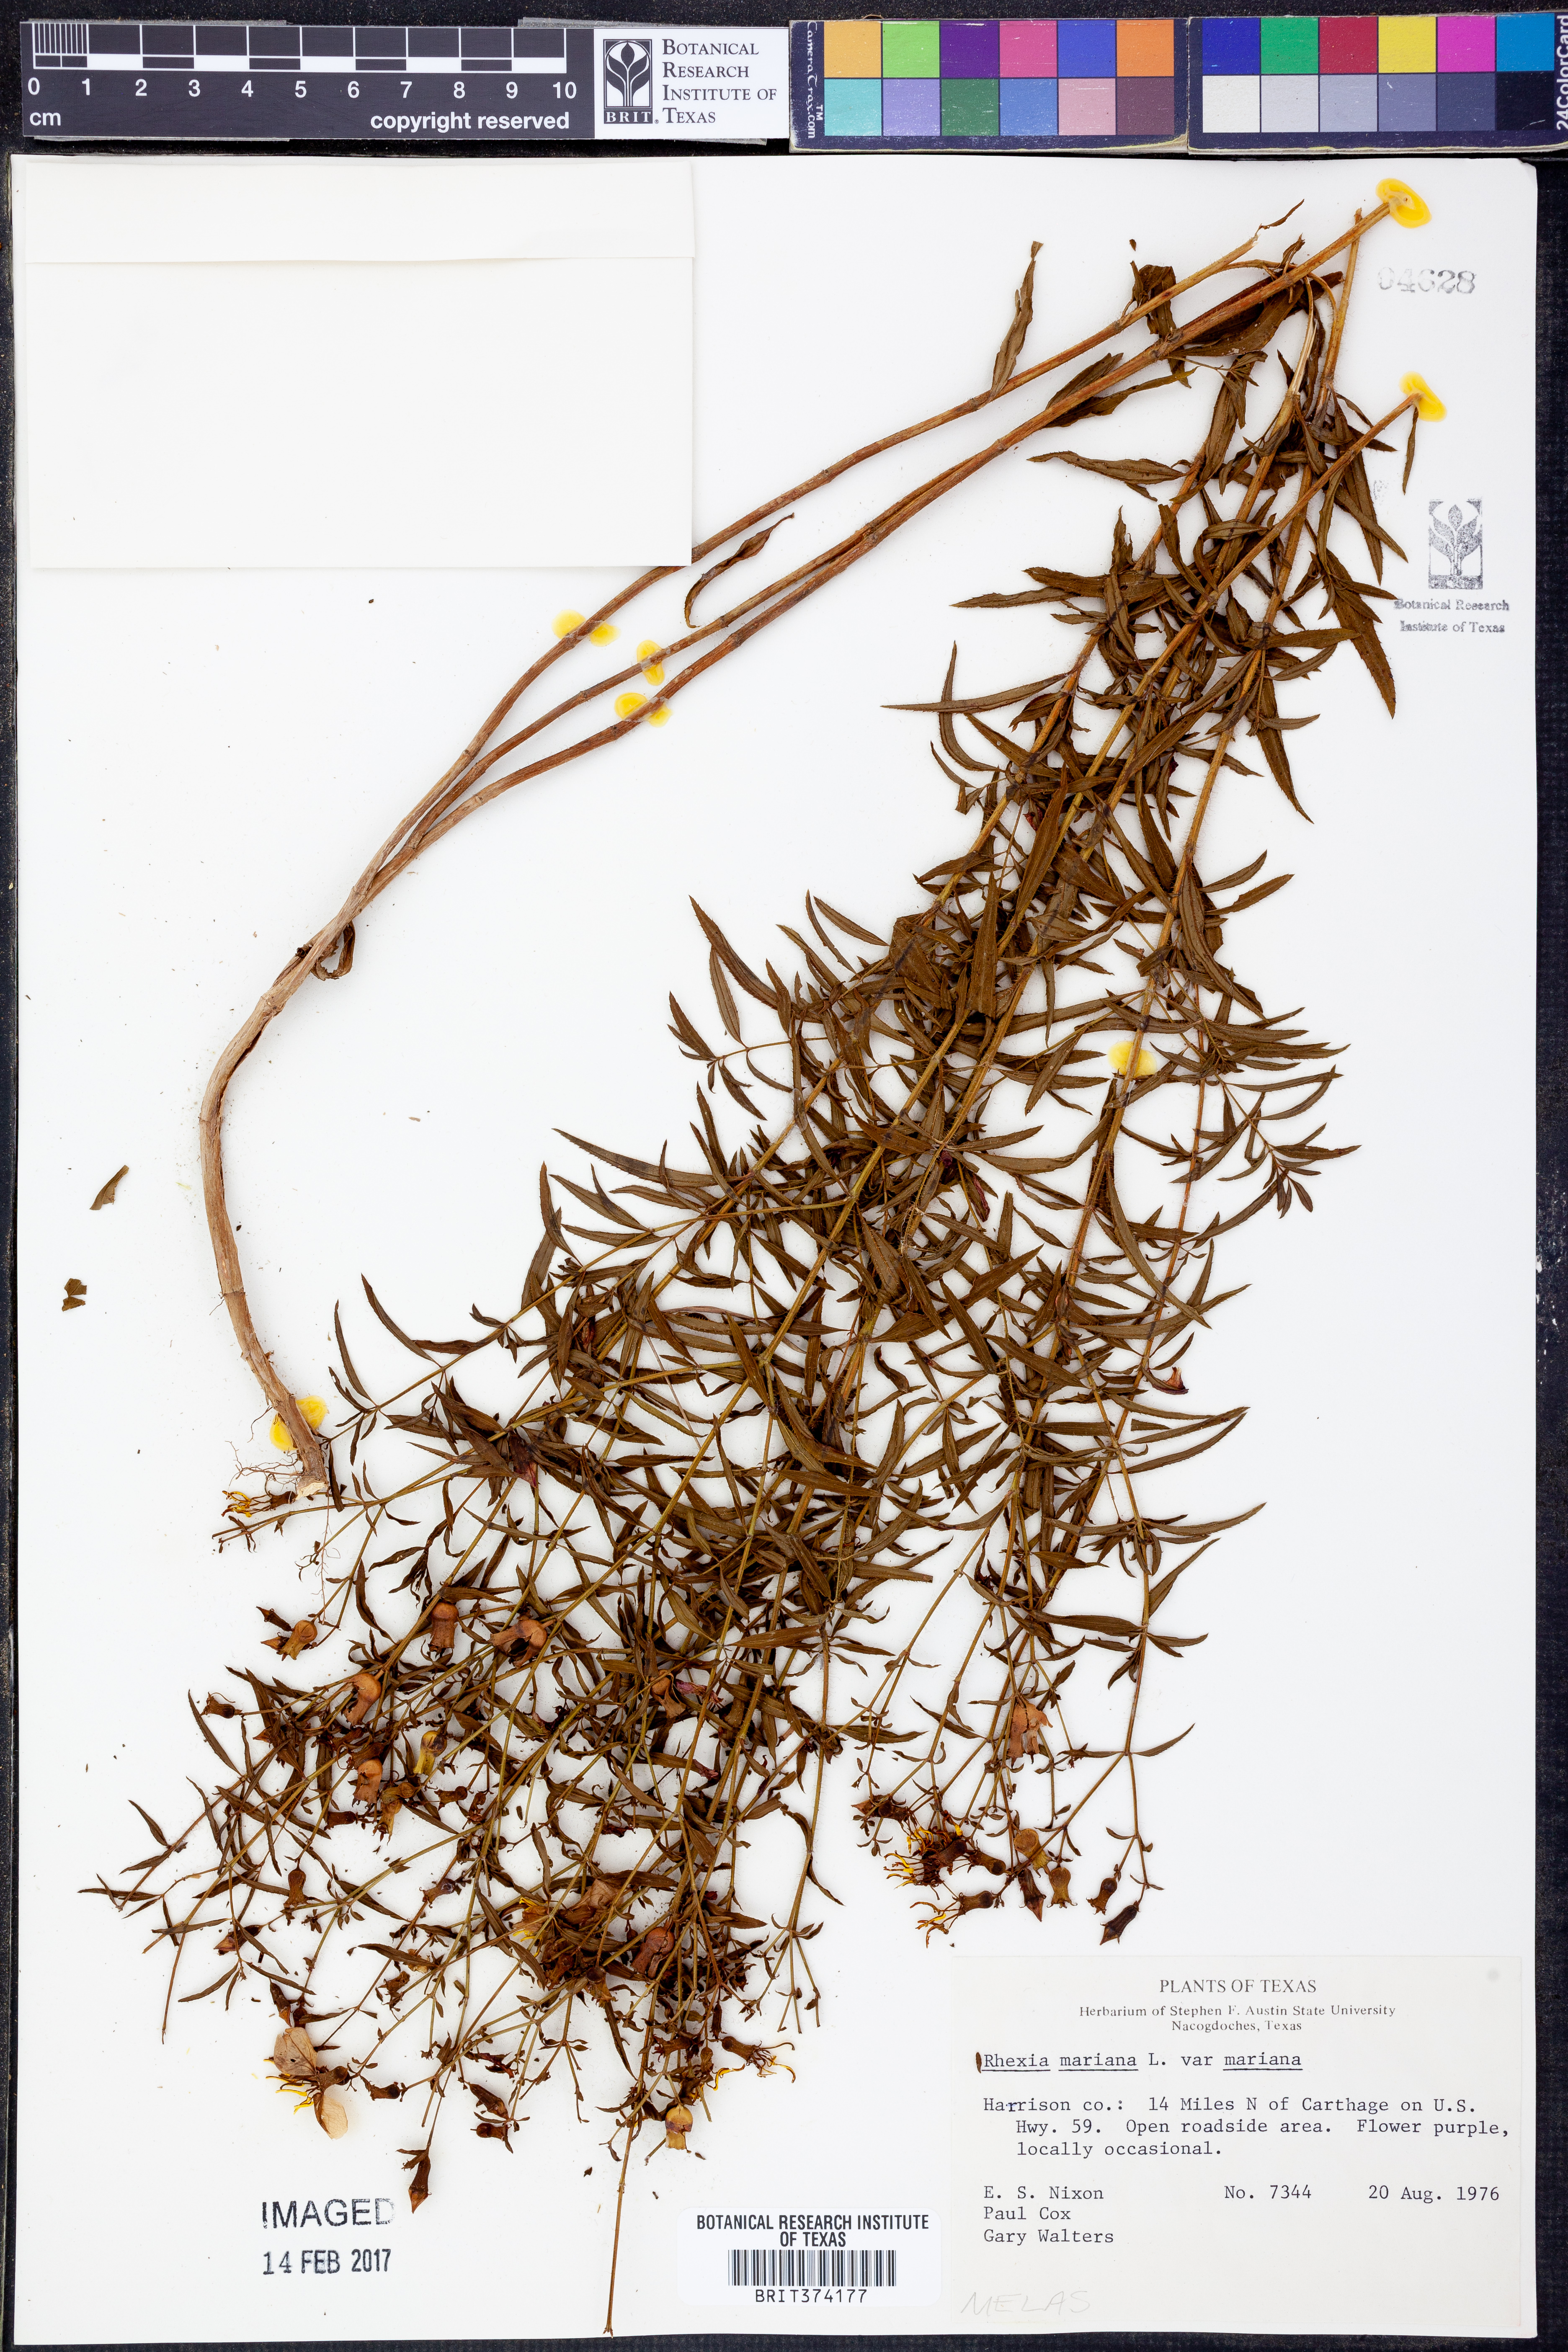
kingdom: Plantae
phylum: Tracheophyta
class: Magnoliopsida
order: Myrtales
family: Melastomataceae
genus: Rhexia
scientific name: Rhexia mariana
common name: Dull meadow-pitcher
